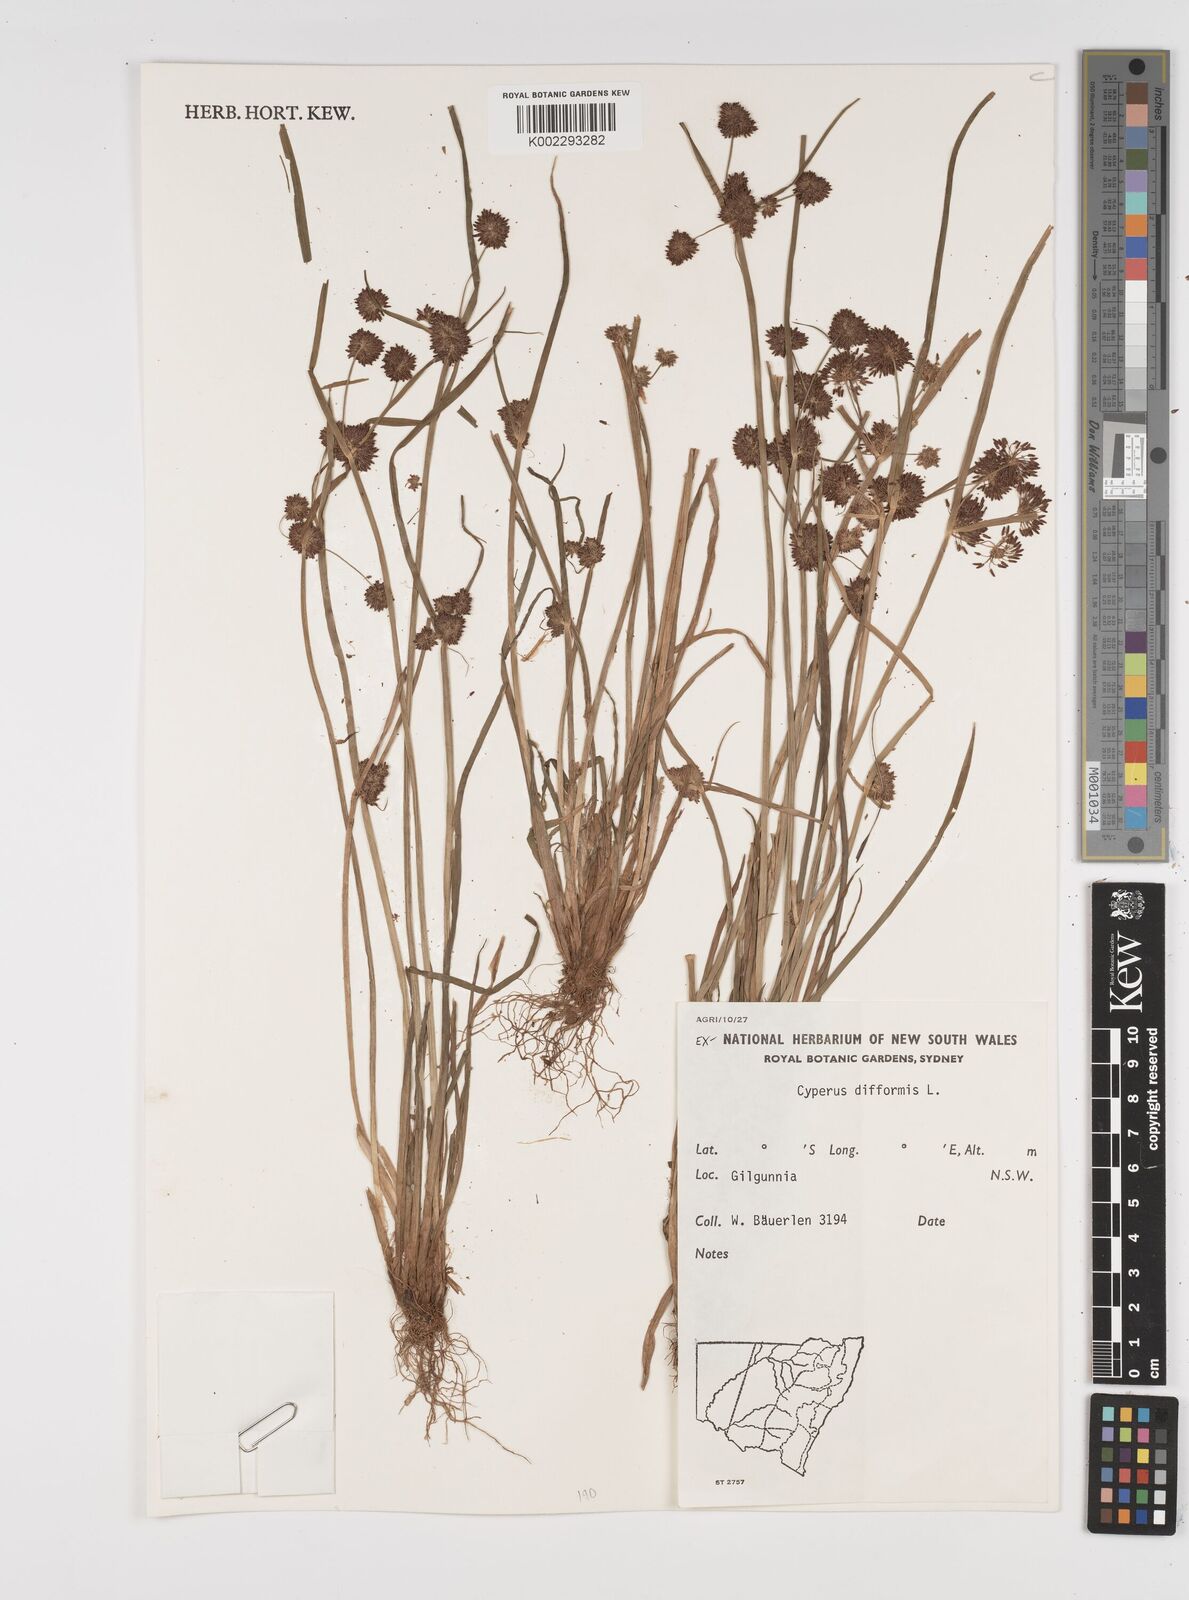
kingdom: Plantae
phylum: Tracheophyta
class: Liliopsida
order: Poales
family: Cyperaceae
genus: Cyperus
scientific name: Cyperus difformis
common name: Variable flatsedge
